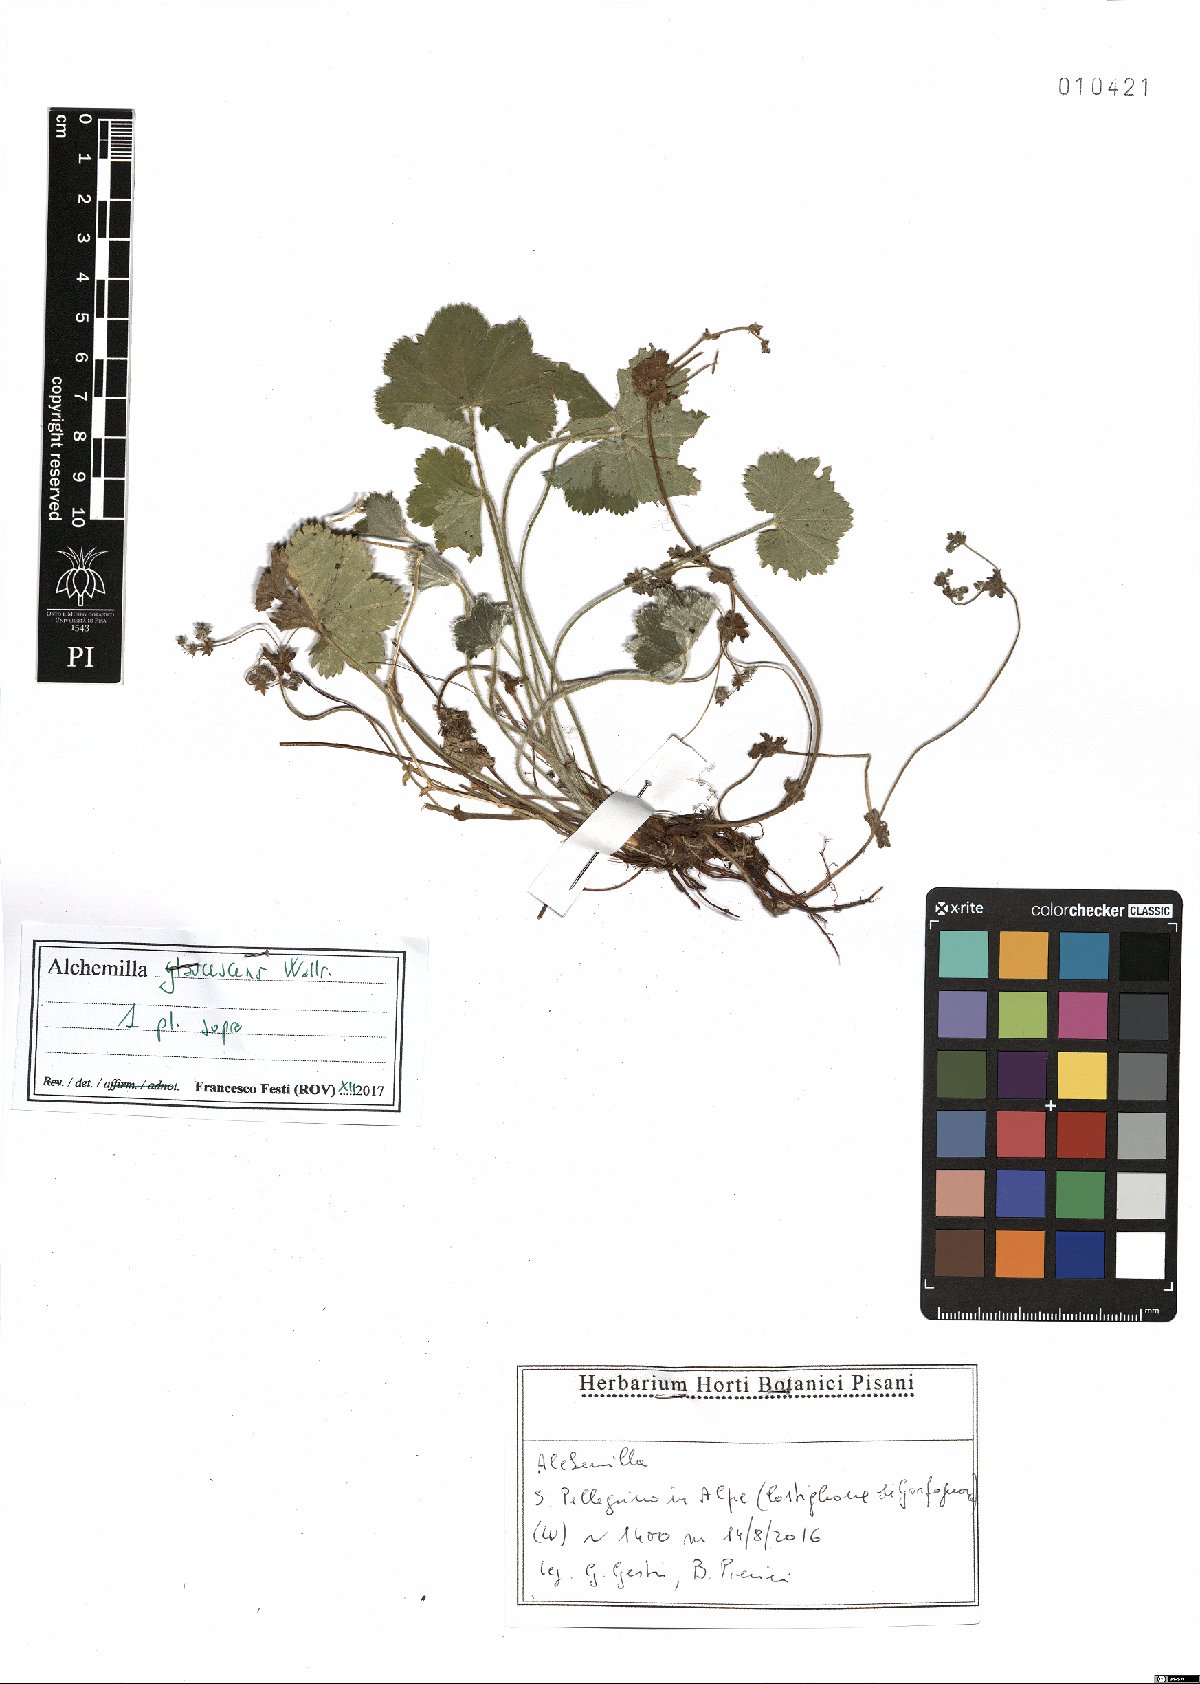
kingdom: Plantae
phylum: Tracheophyta
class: Magnoliopsida
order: Rosales
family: Rosaceae
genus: Alchemilla
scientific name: Alchemilla glaucescens
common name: Silky lady's mantle
